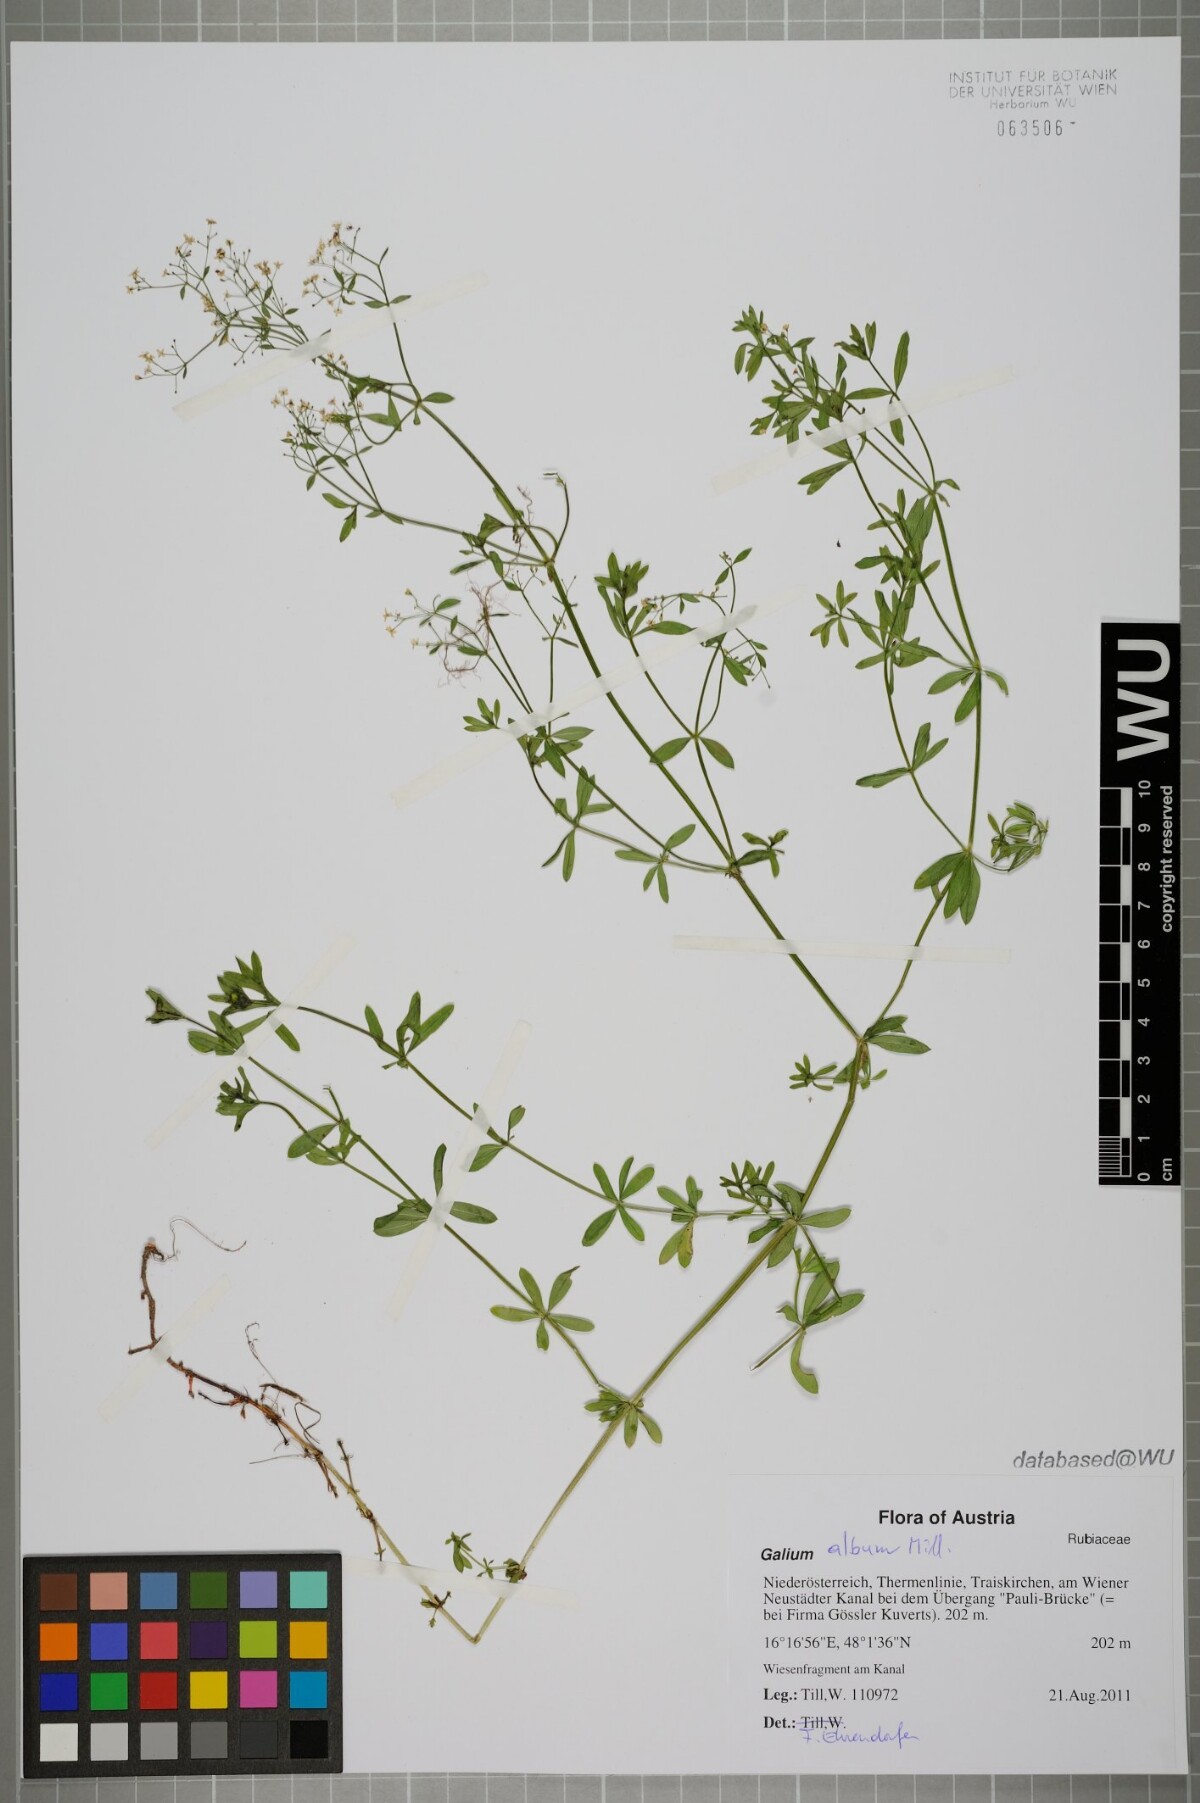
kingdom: Plantae
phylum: Tracheophyta
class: Magnoliopsida
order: Gentianales
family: Rubiaceae
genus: Galium
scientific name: Galium album
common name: White bedstraw
